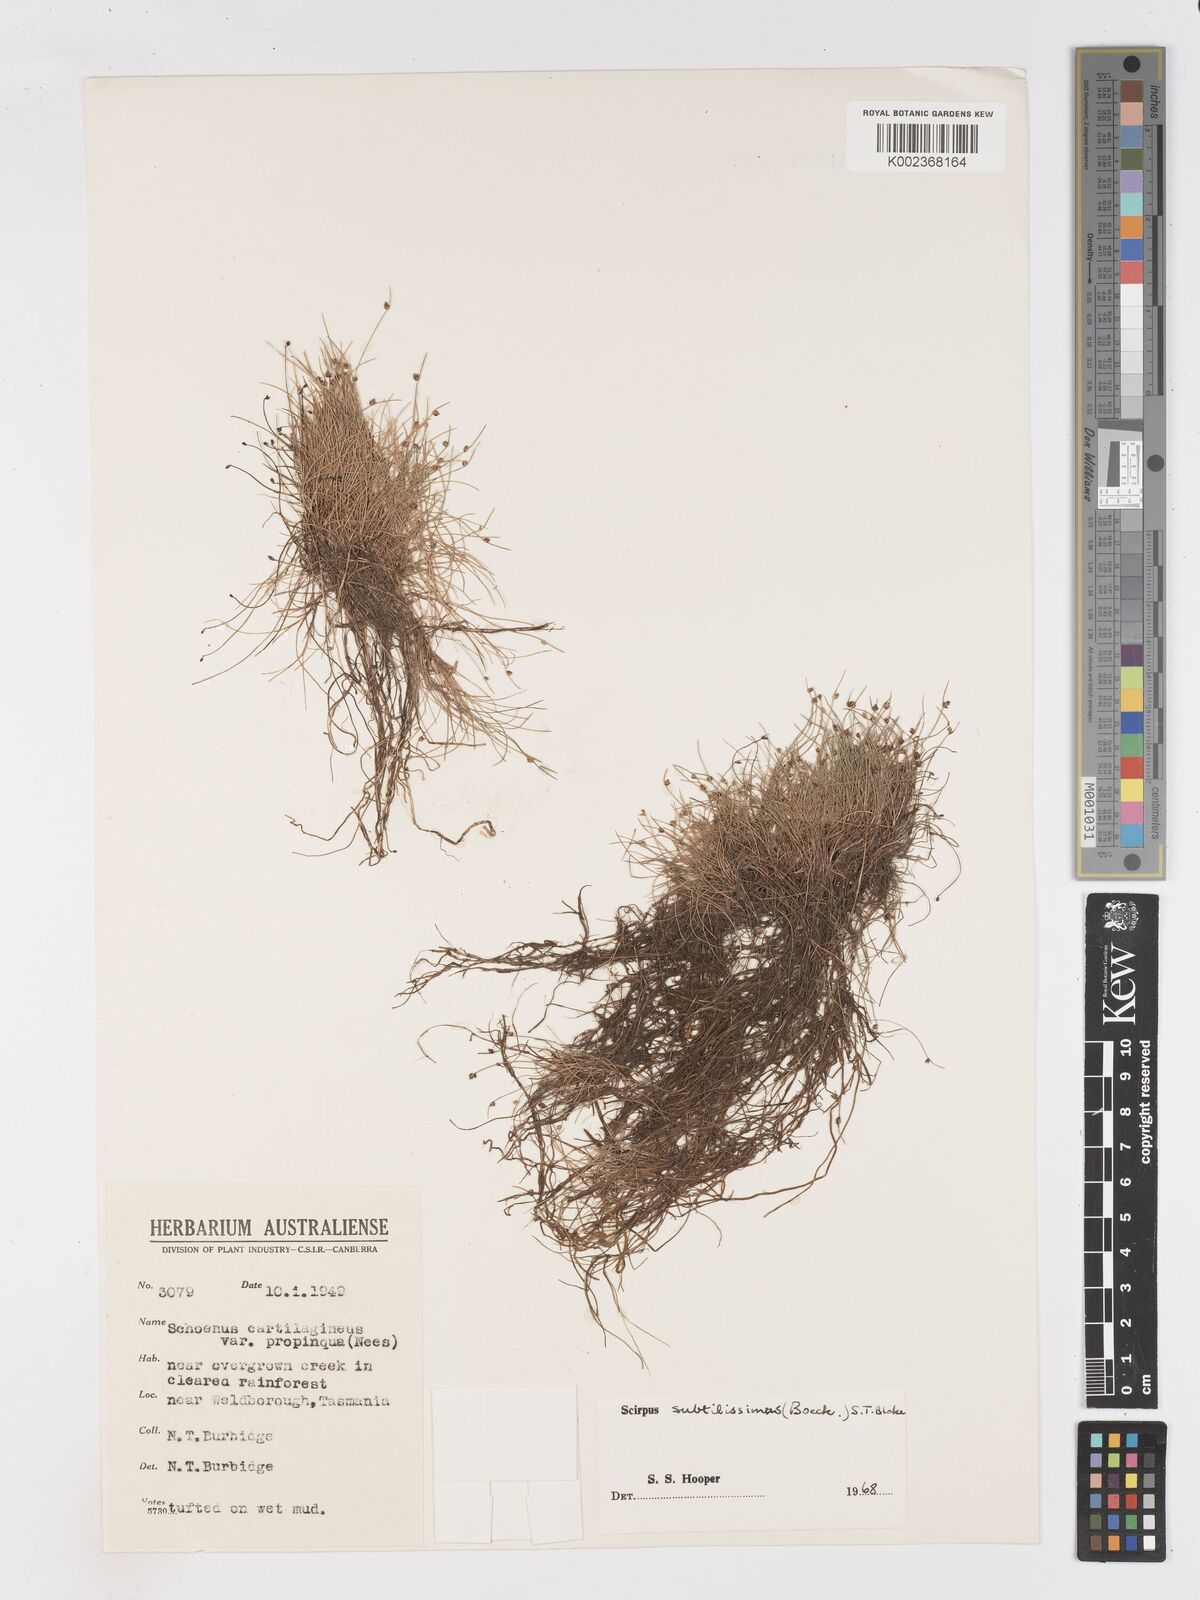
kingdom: Plantae
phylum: Tracheophyta
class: Liliopsida
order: Poales
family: Cyperaceae
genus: Isolepis
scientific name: Isolepis subtilissima
